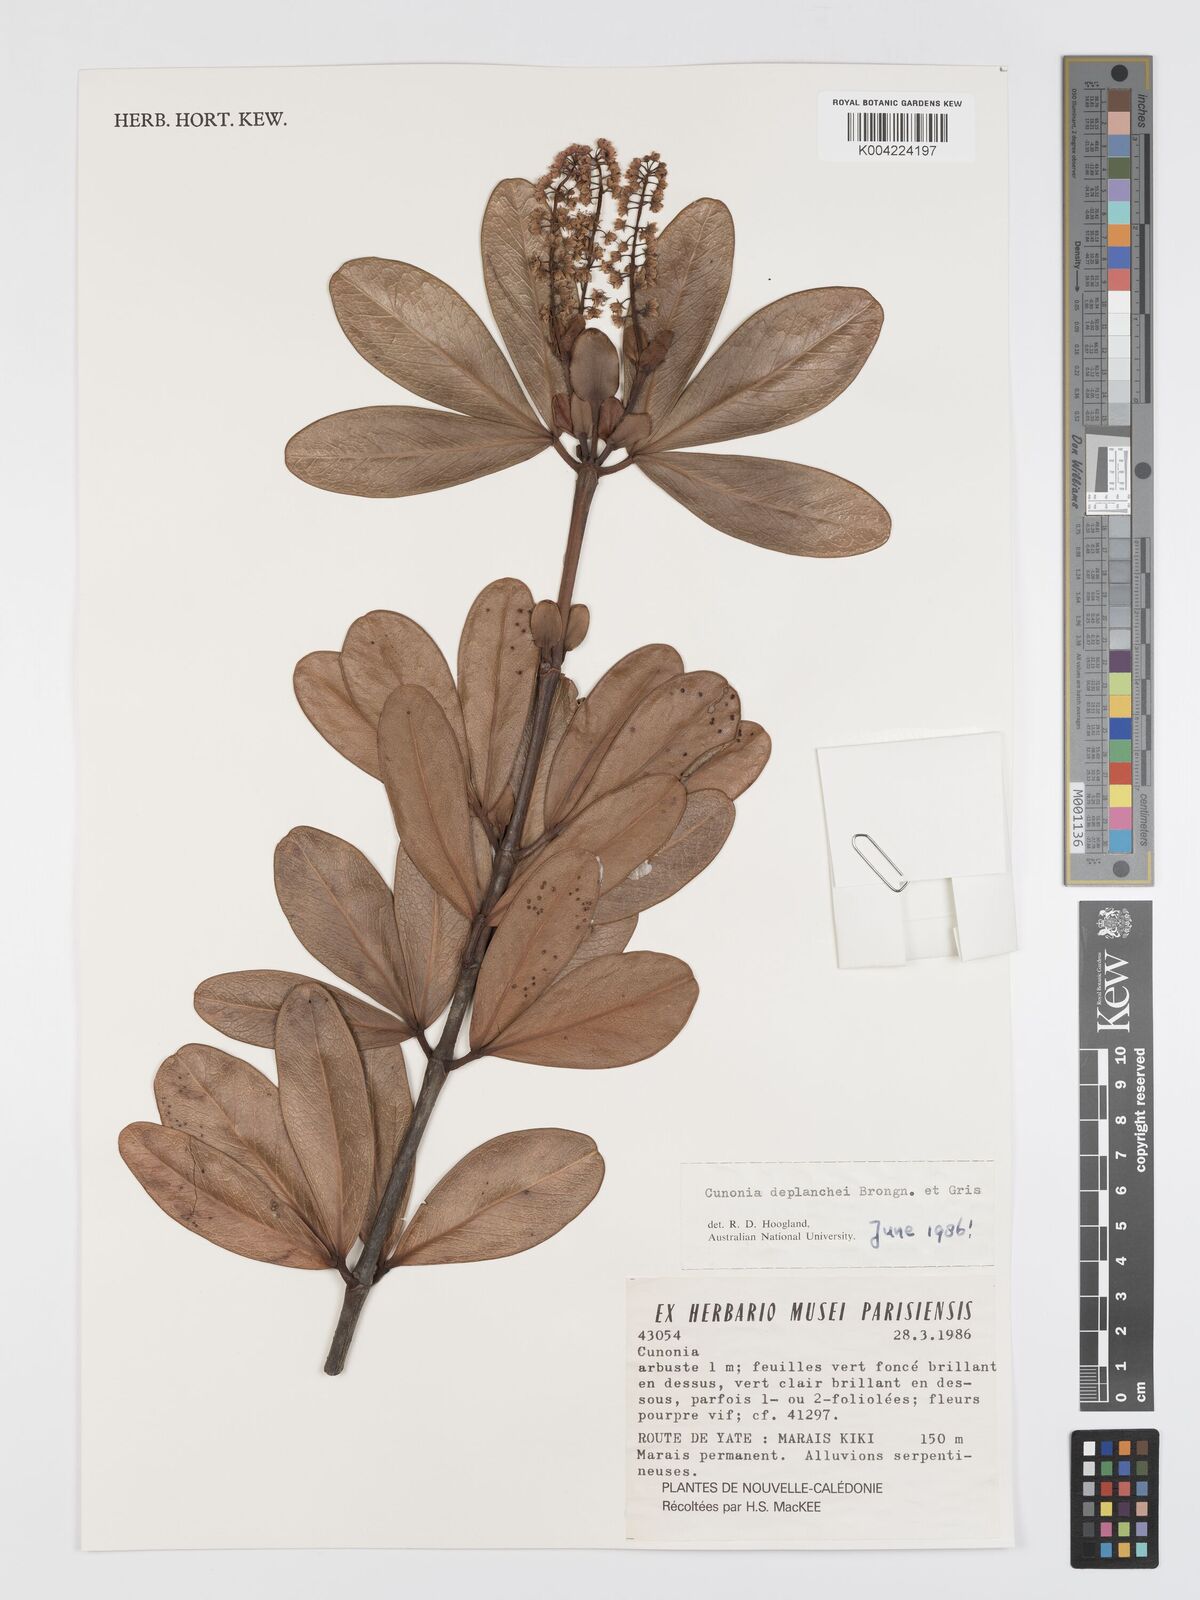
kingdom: Plantae
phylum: Tracheophyta
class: Magnoliopsida
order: Oxalidales
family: Cunoniaceae
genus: Cunonia
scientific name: Cunonia deplanchei
